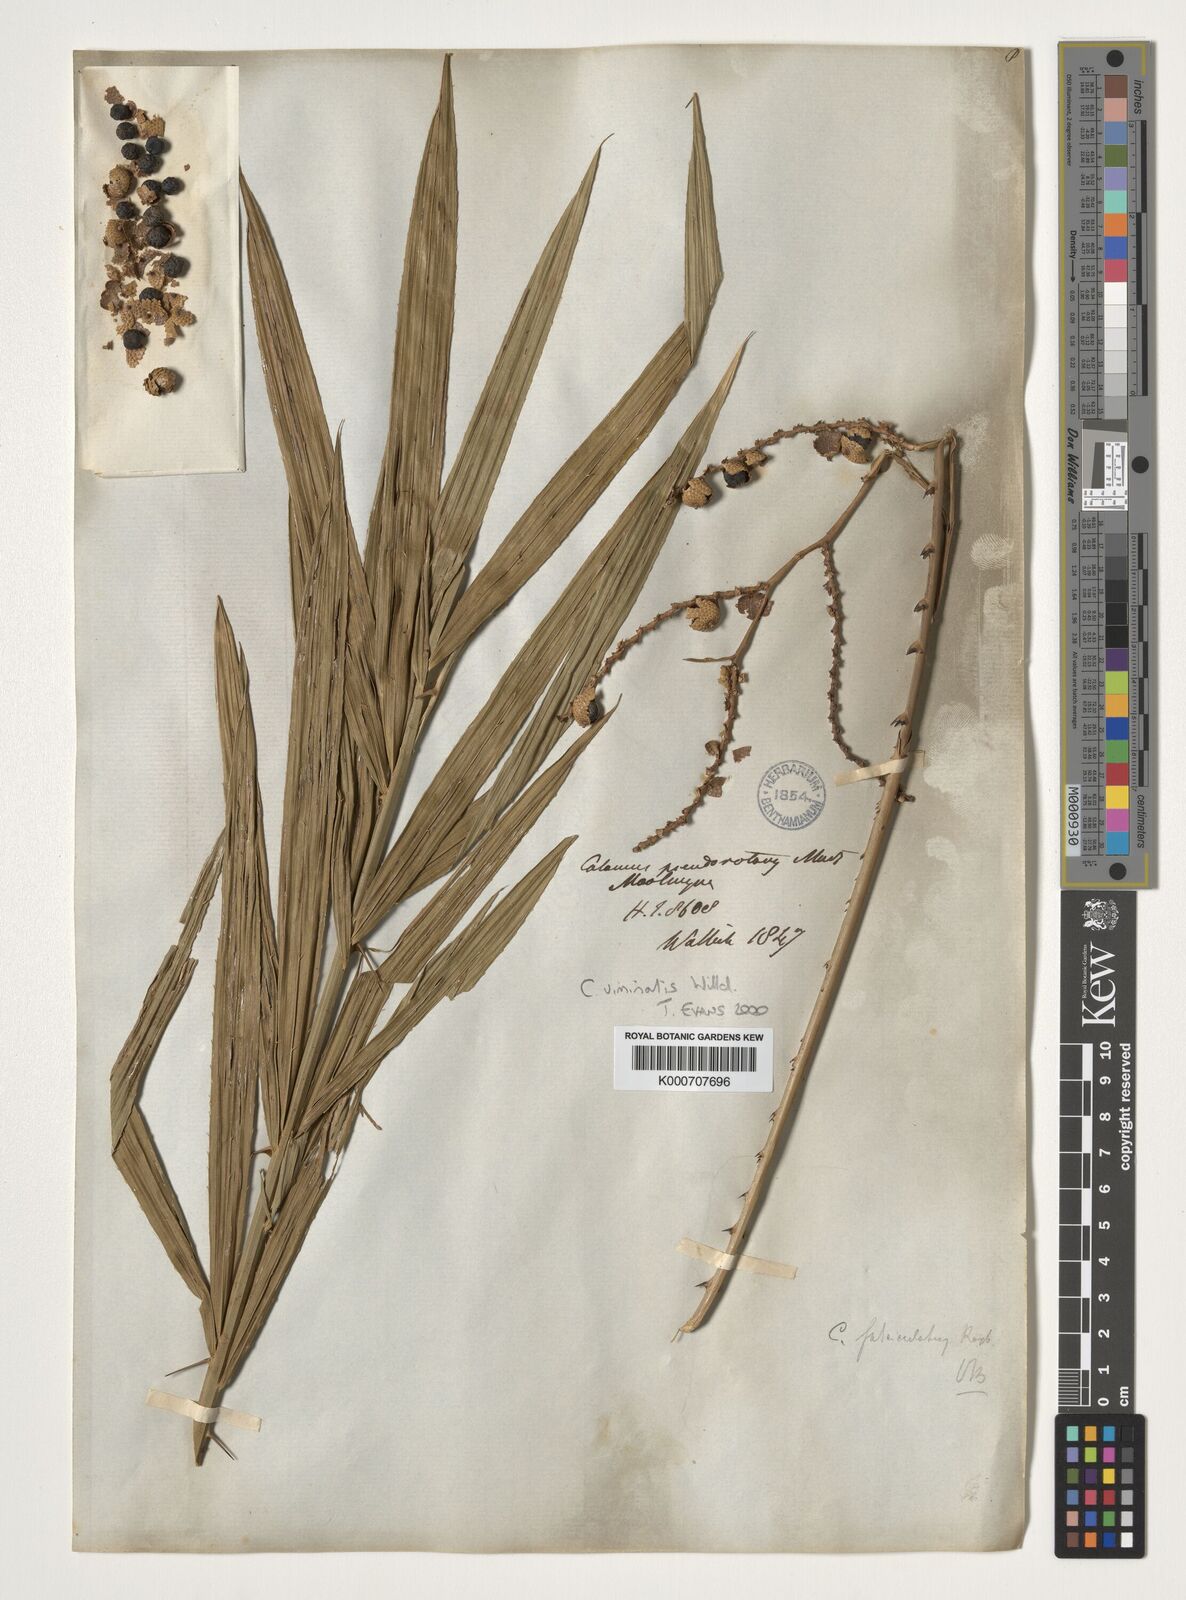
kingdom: Plantae
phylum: Tracheophyta
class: Liliopsida
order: Arecales
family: Arecaceae
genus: Calamus
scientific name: Calamus viminalis
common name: Osier-like rattan palm
